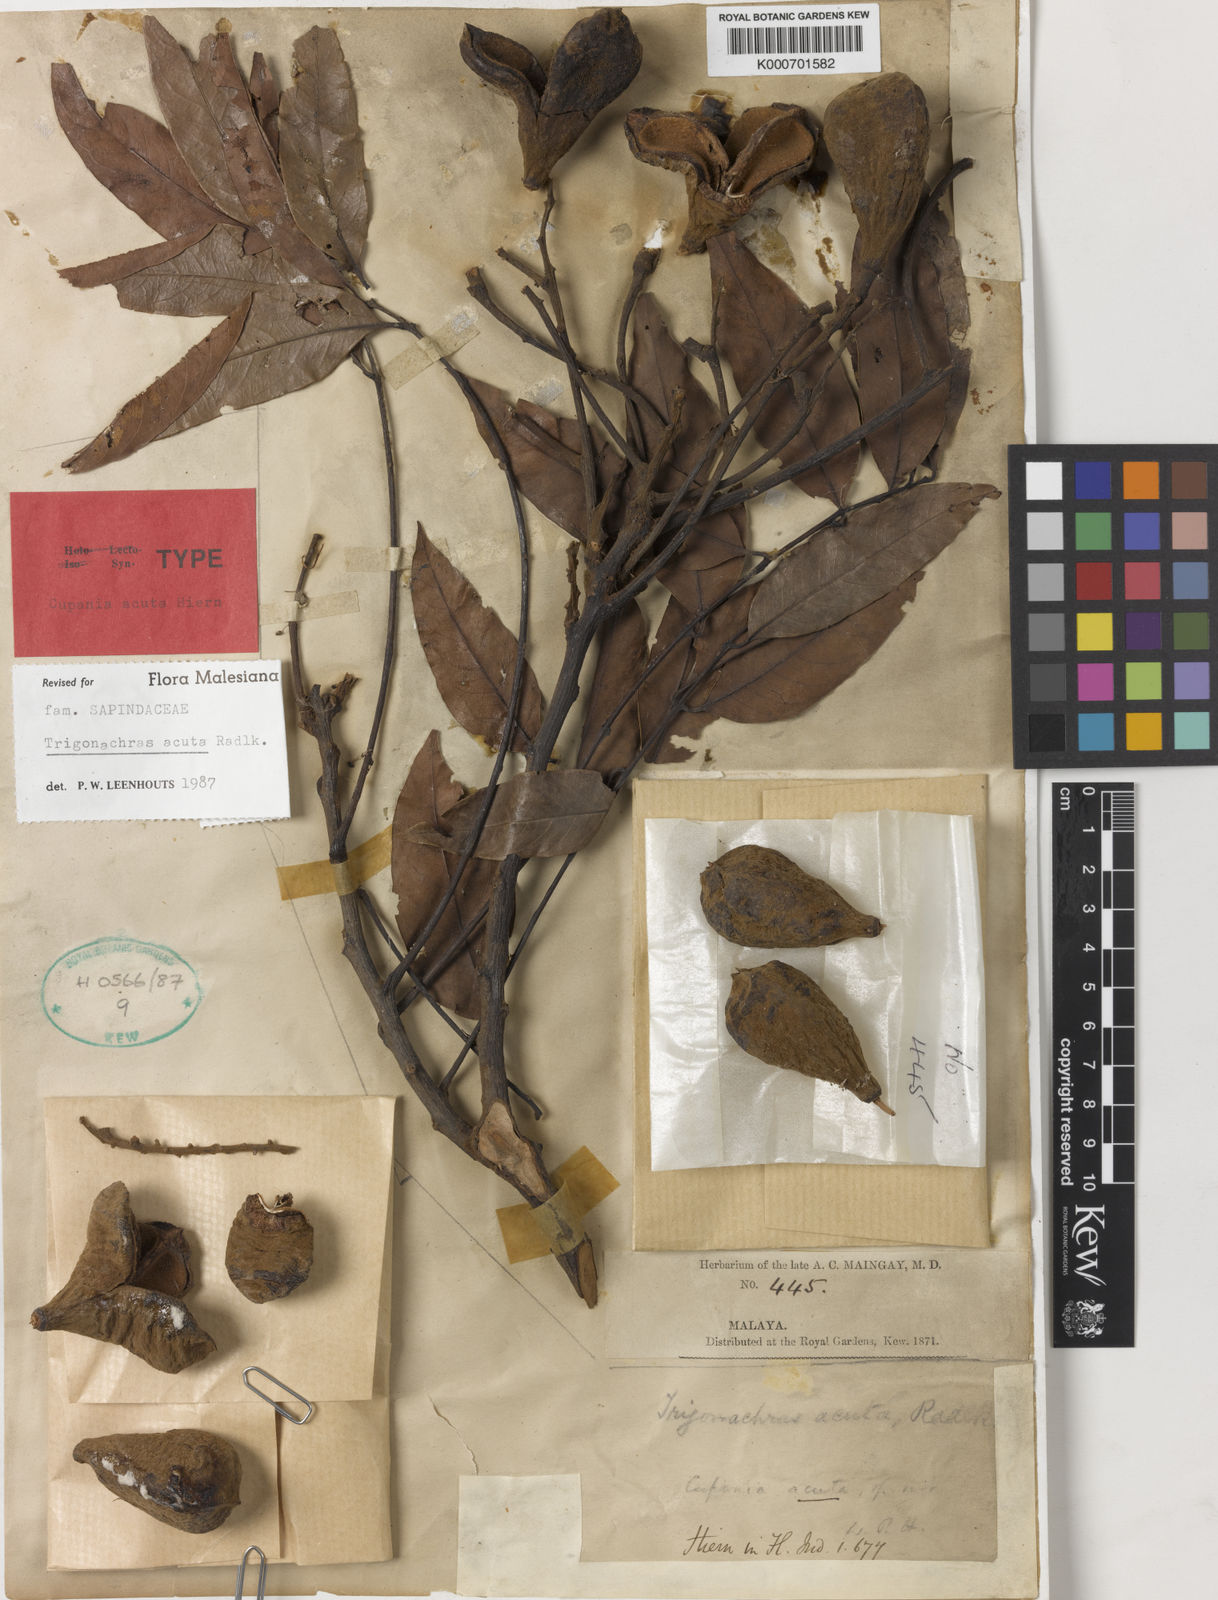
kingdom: Plantae
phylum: Tracheophyta
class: Magnoliopsida
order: Sapindales
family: Sapindaceae
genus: Trigonachras
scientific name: Trigonachras acuta
